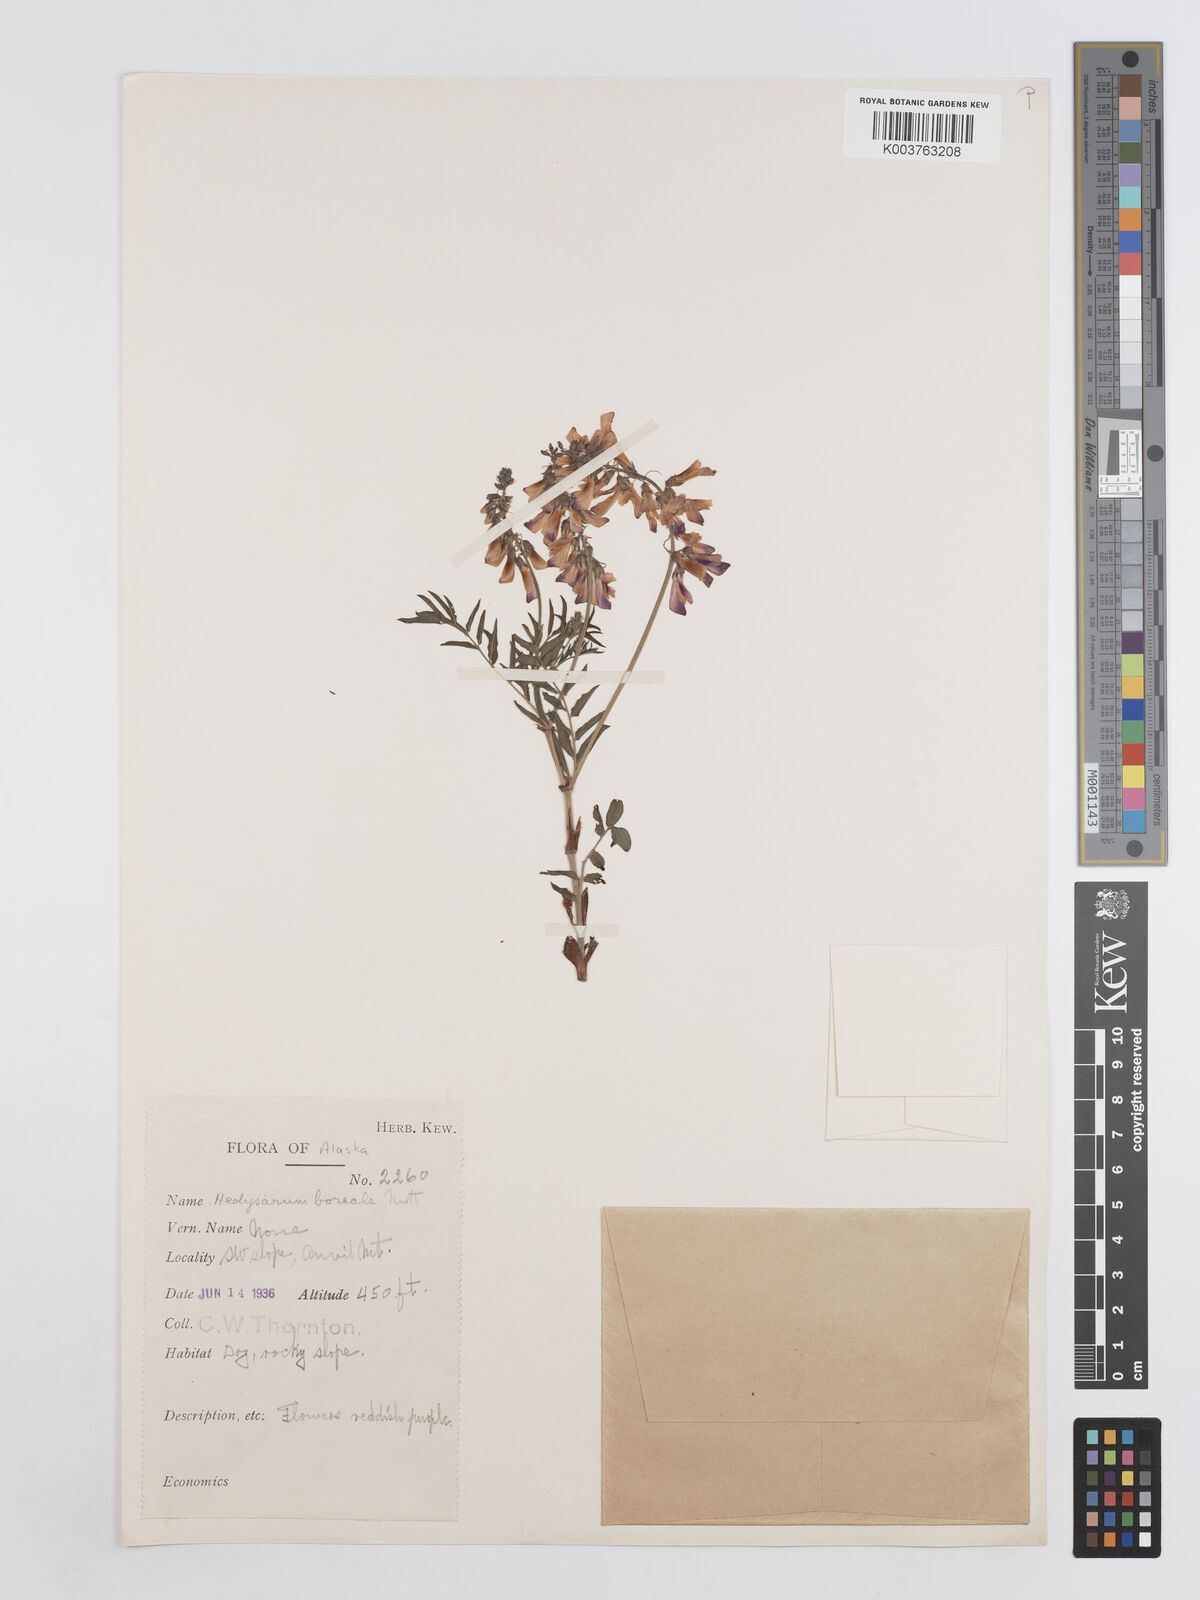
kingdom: Plantae
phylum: Tracheophyta
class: Magnoliopsida
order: Fabales
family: Fabaceae
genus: Hedysarum
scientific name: Hedysarum boreale
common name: Northern sweet-vetch
